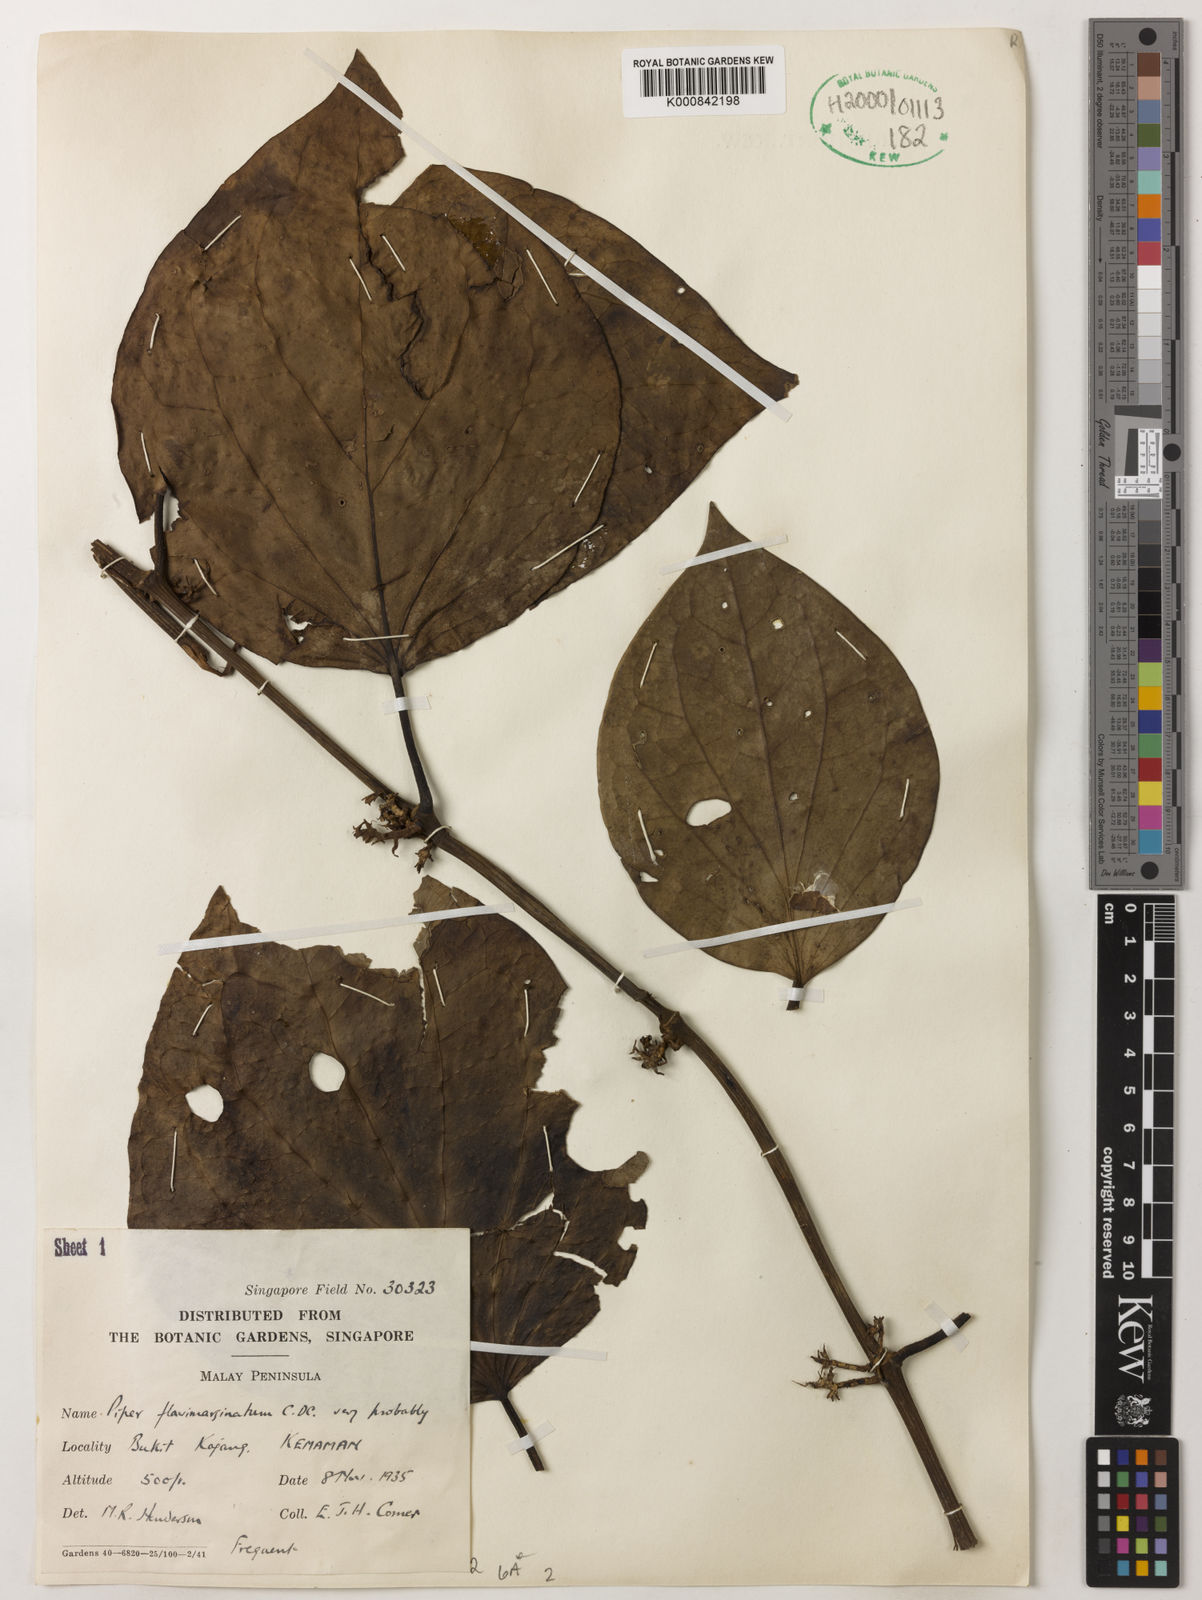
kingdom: Plantae
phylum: Tracheophyta
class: Magnoliopsida
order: Piperales
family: Piperaceae
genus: Piper
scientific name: Piper flavimarginatum
